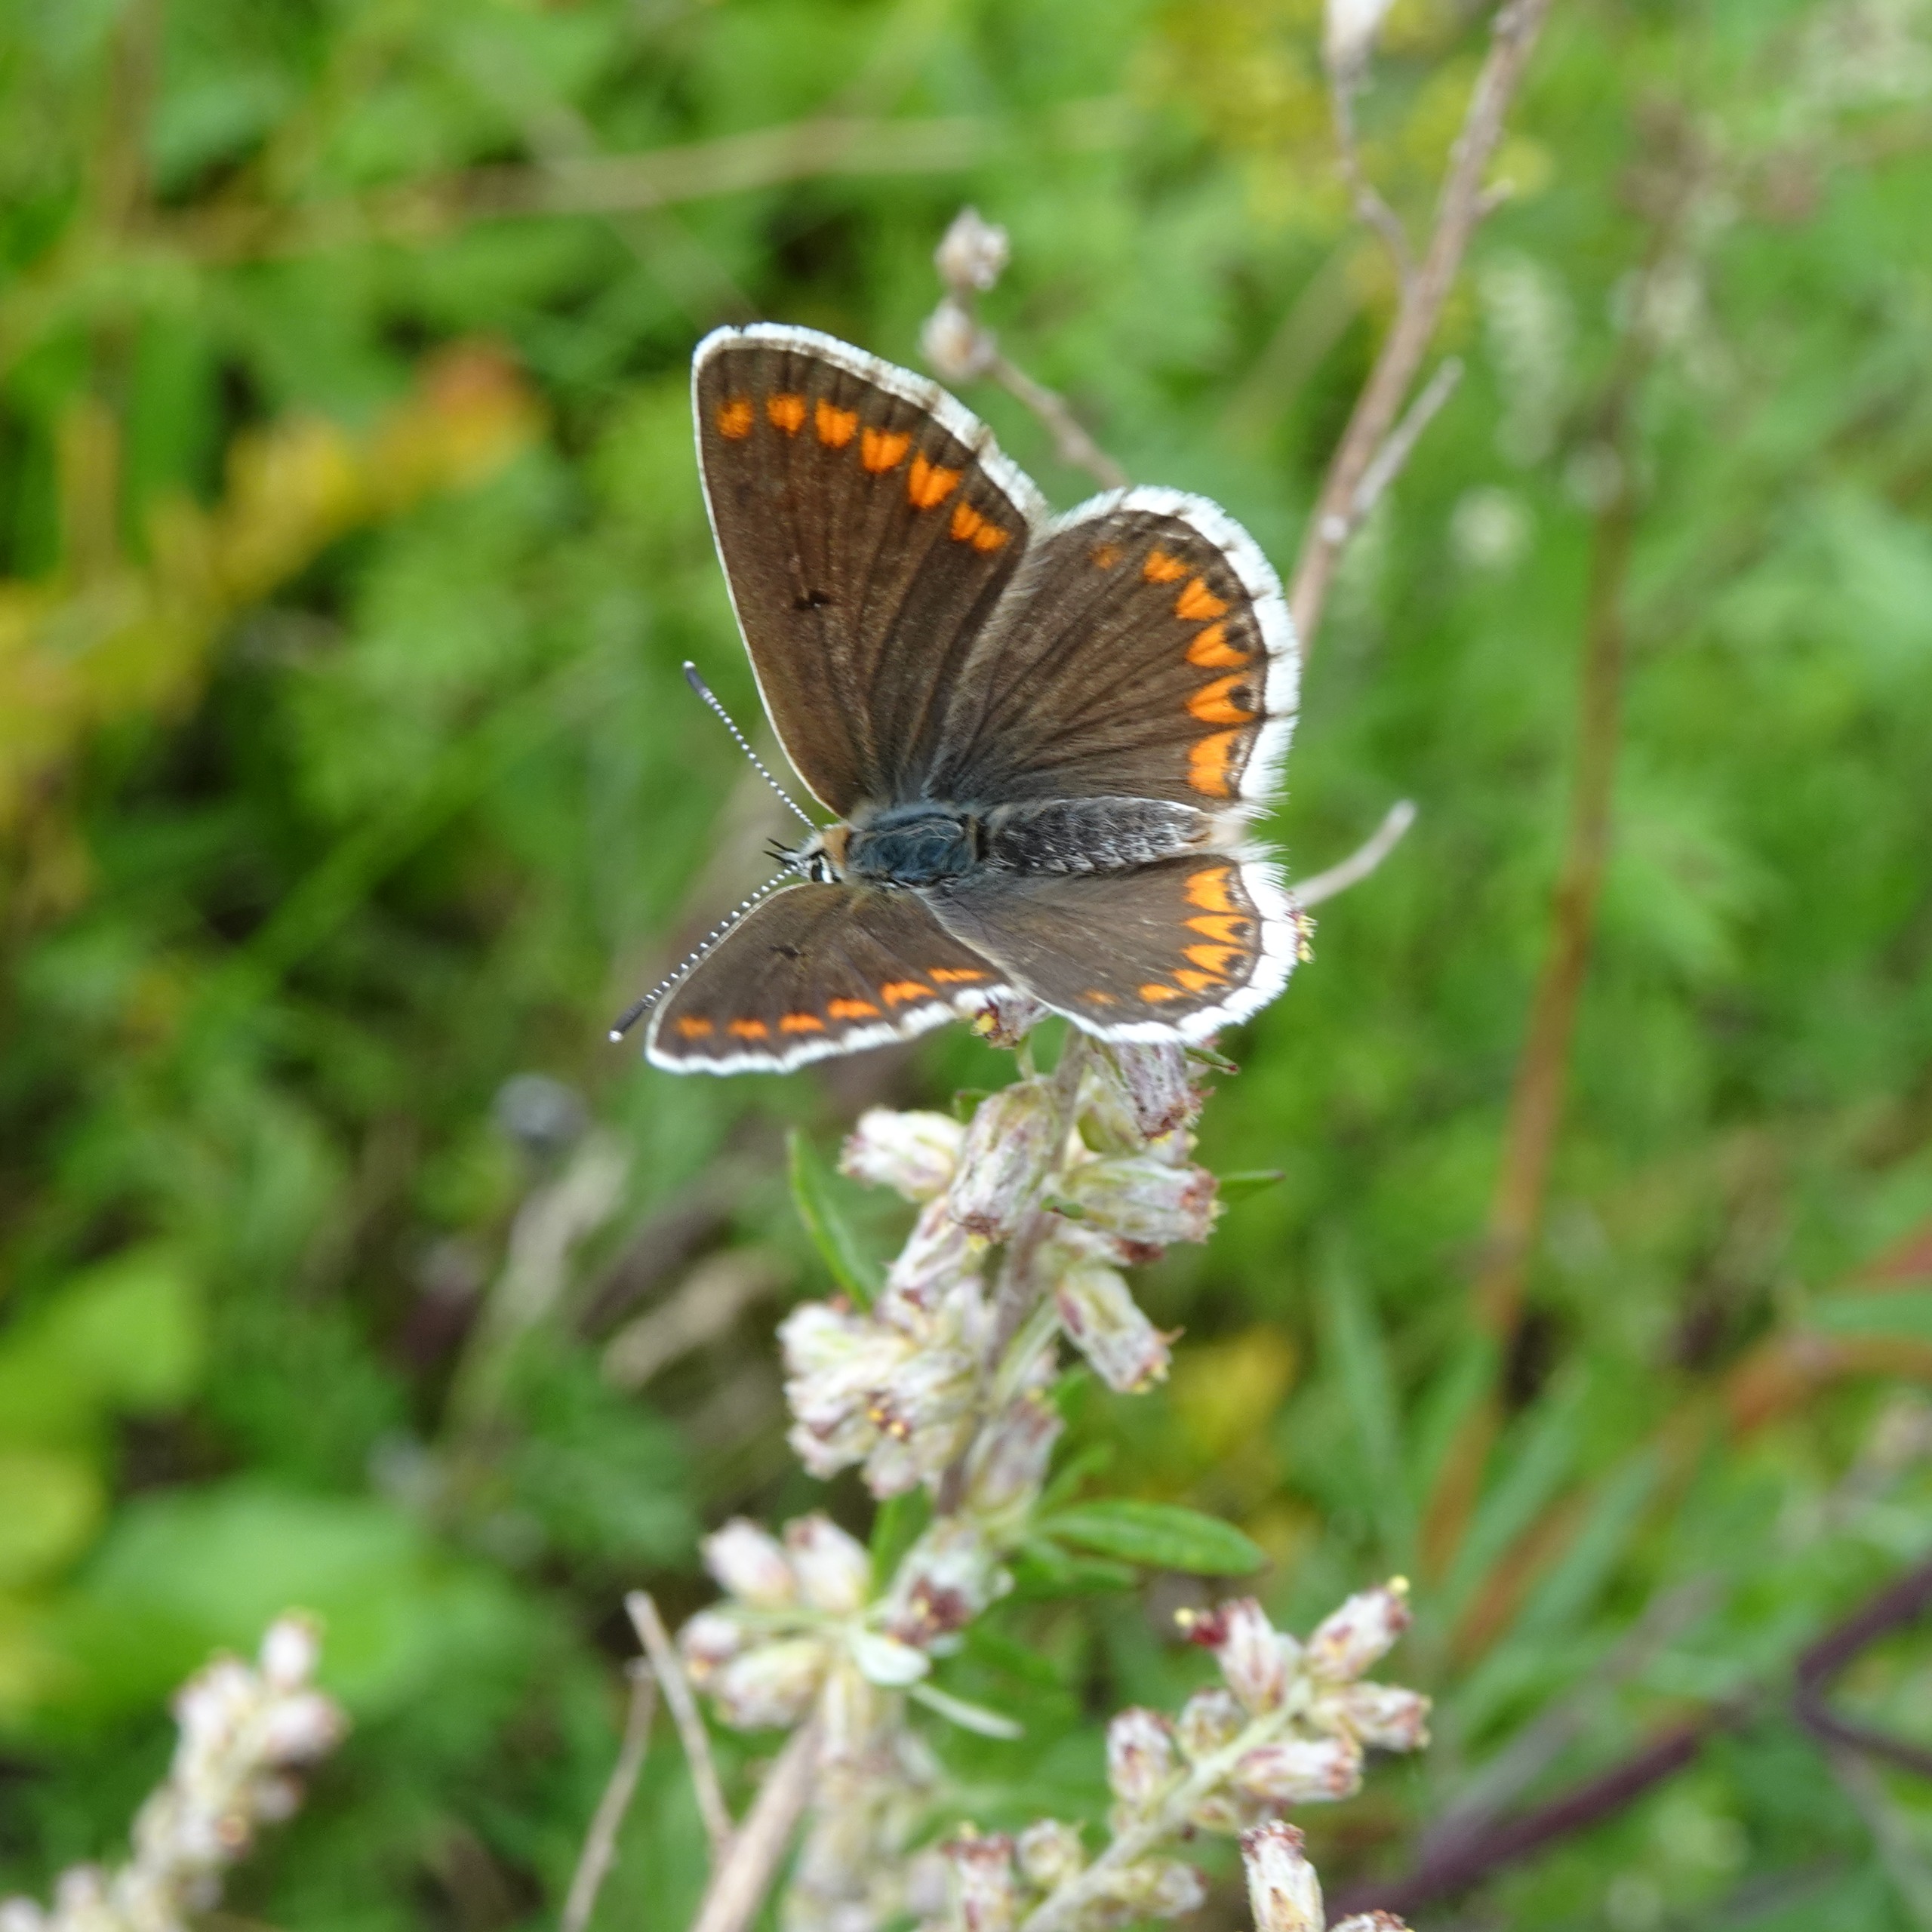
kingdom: Animalia
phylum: Arthropoda
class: Insecta
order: Lepidoptera
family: Lycaenidae
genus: Aricia
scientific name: Aricia agestis
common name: Rødplettet blåfugl
